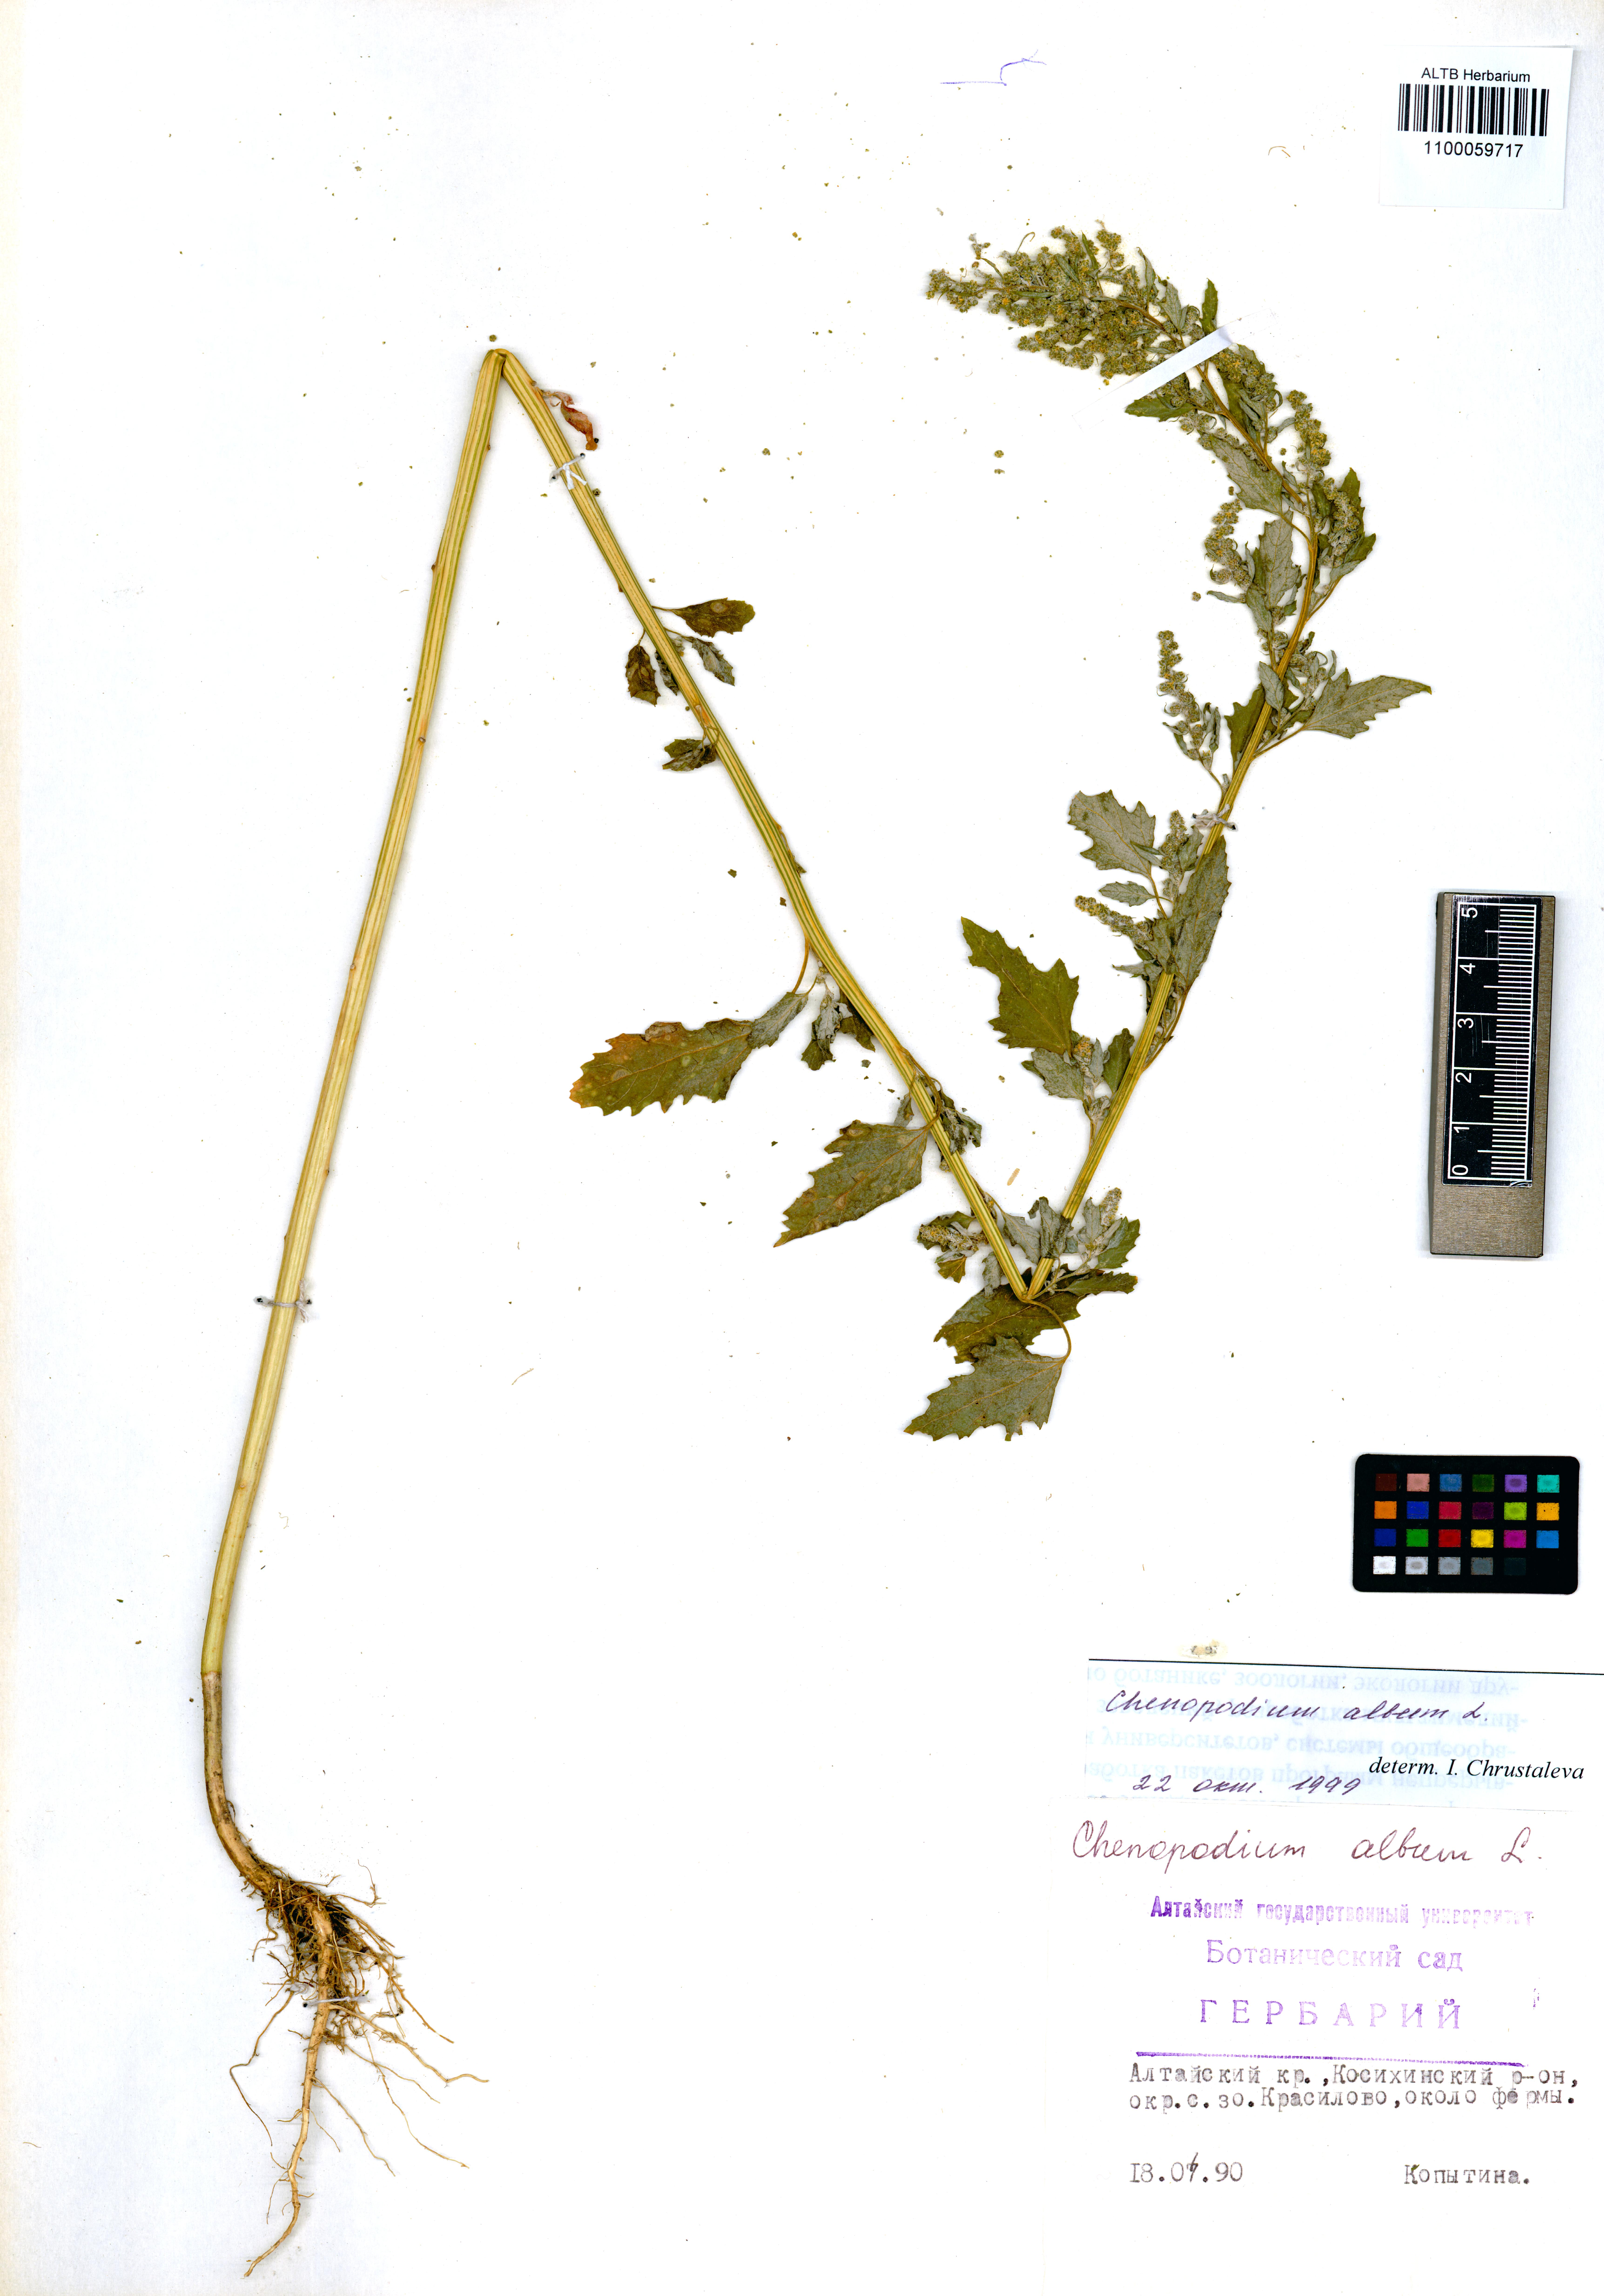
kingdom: Plantae
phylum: Tracheophyta
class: Magnoliopsida
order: Caryophyllales
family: Amaranthaceae
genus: Chenopodium
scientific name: Chenopodium album
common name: Fat-hen
